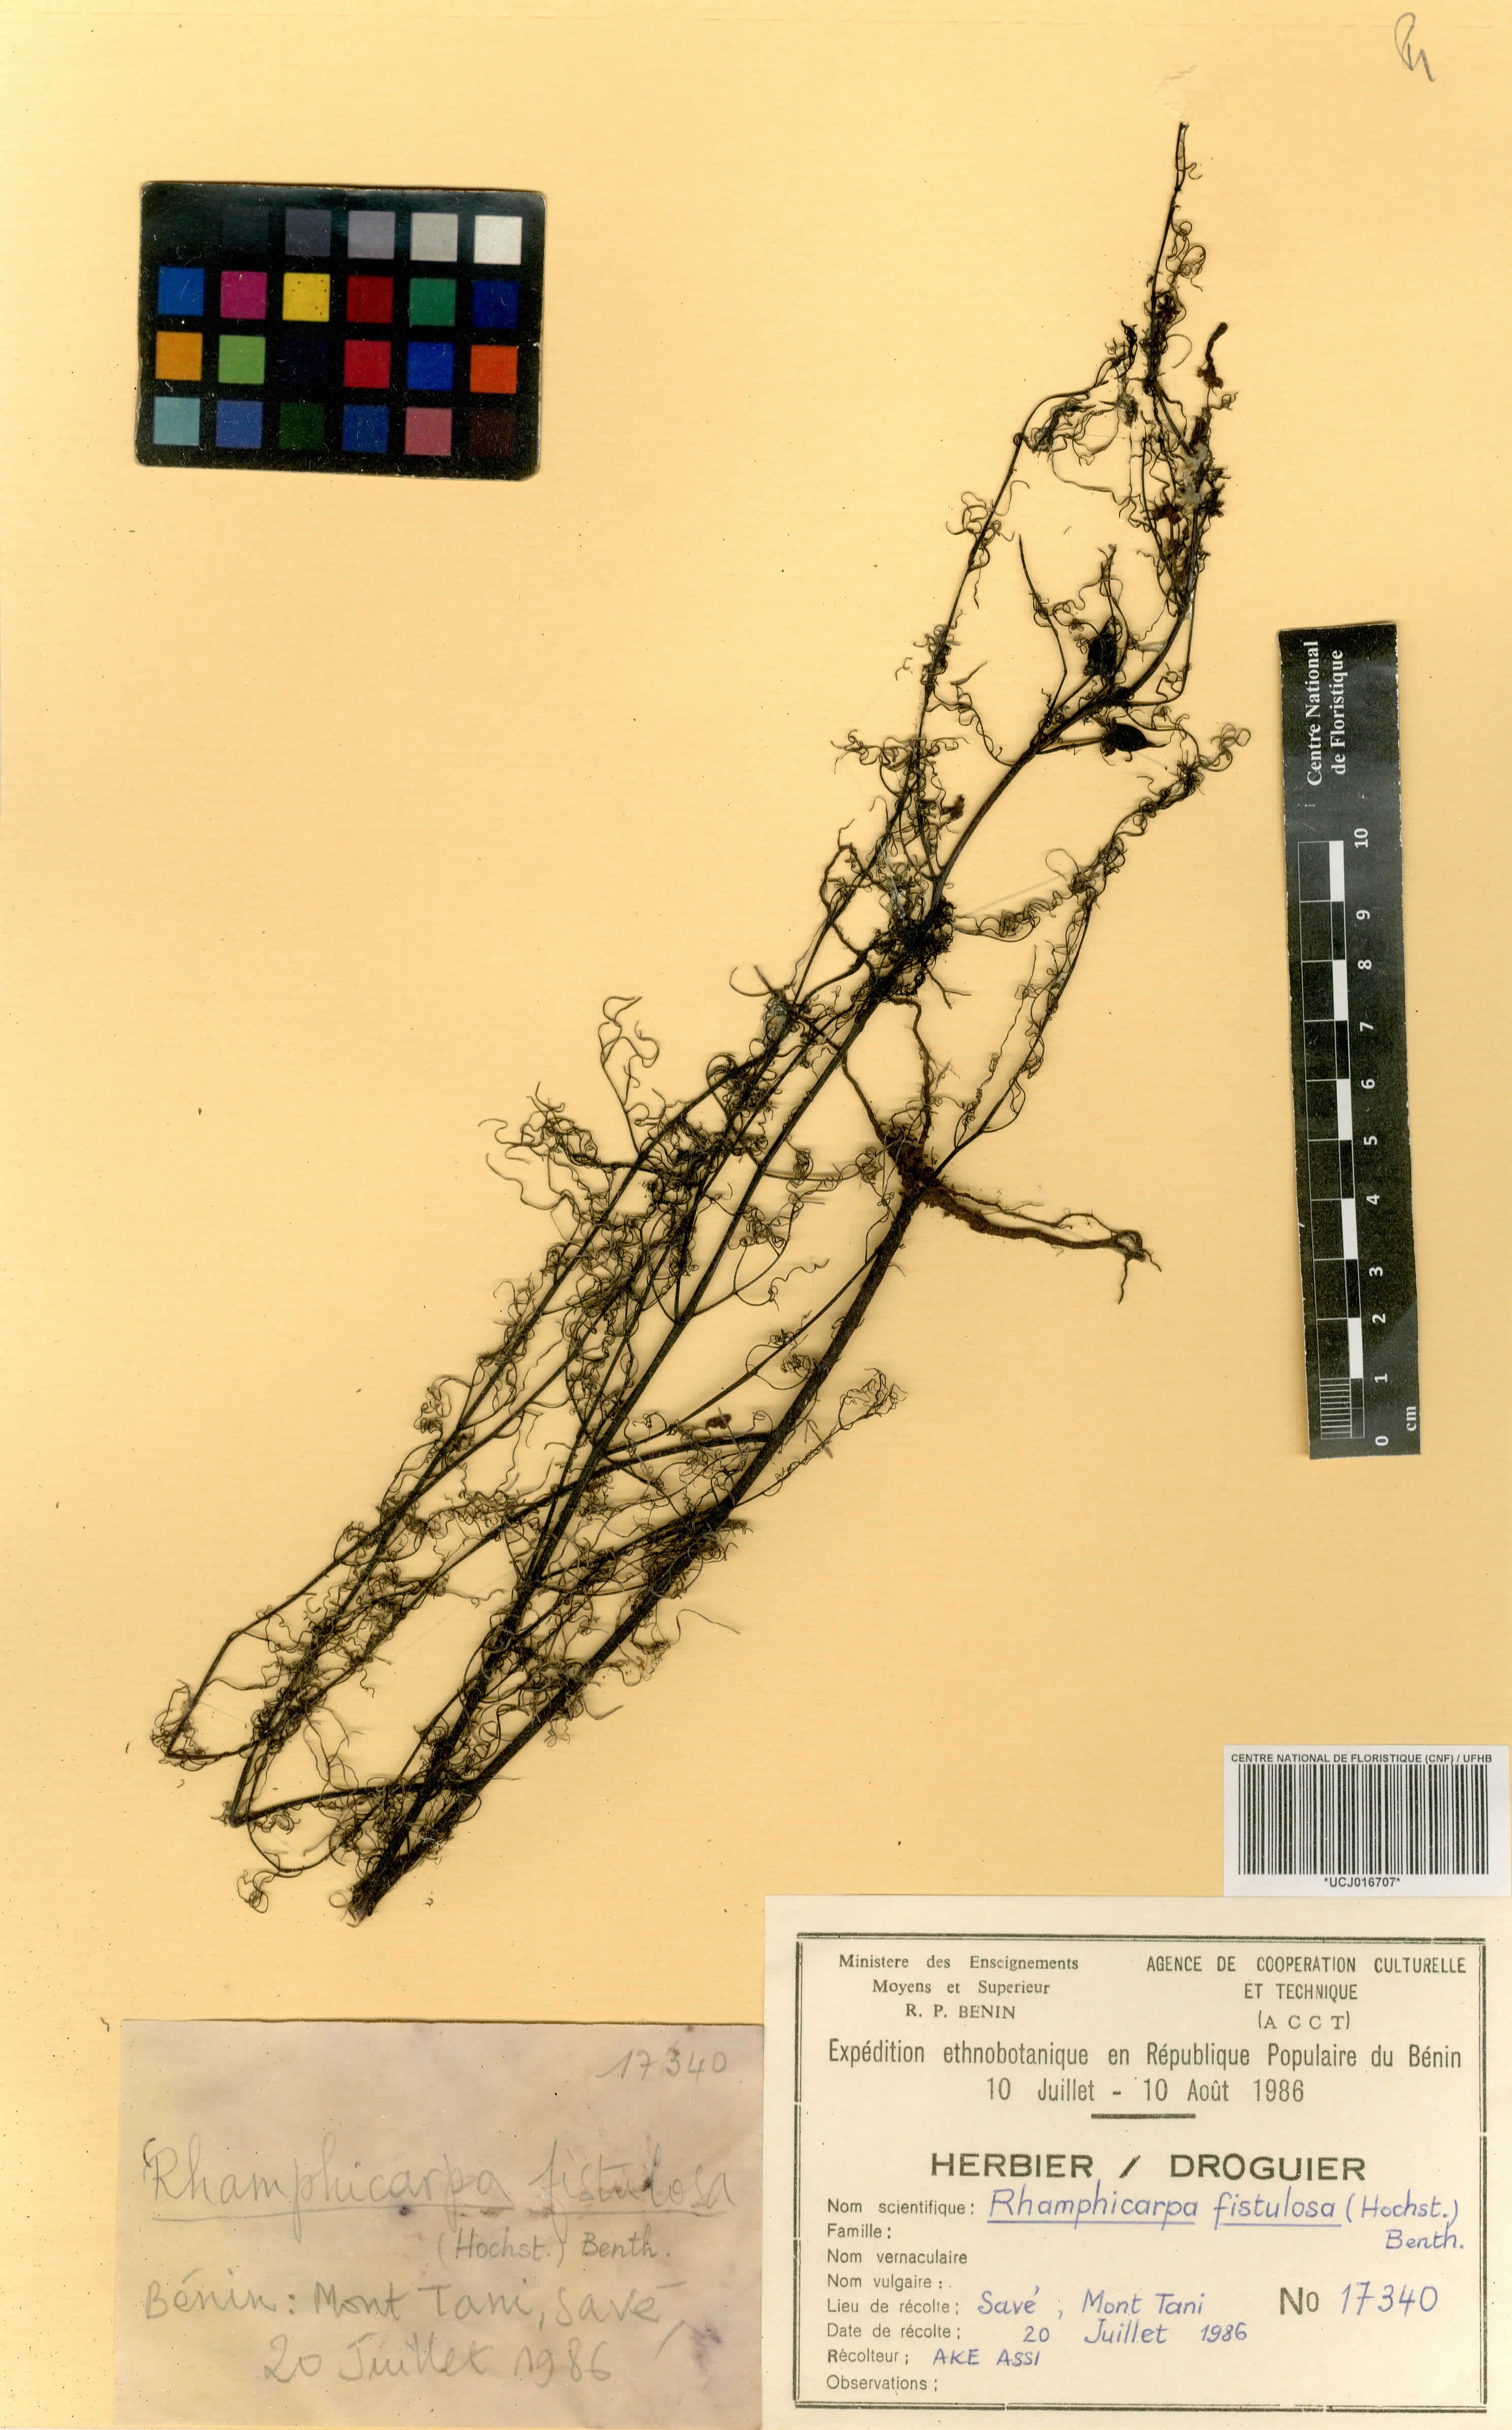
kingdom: Plantae
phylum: Tracheophyta
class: Magnoliopsida
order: Lamiales
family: Orobanchaceae
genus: Rhamphicarpa
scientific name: Rhamphicarpa fistulosa
